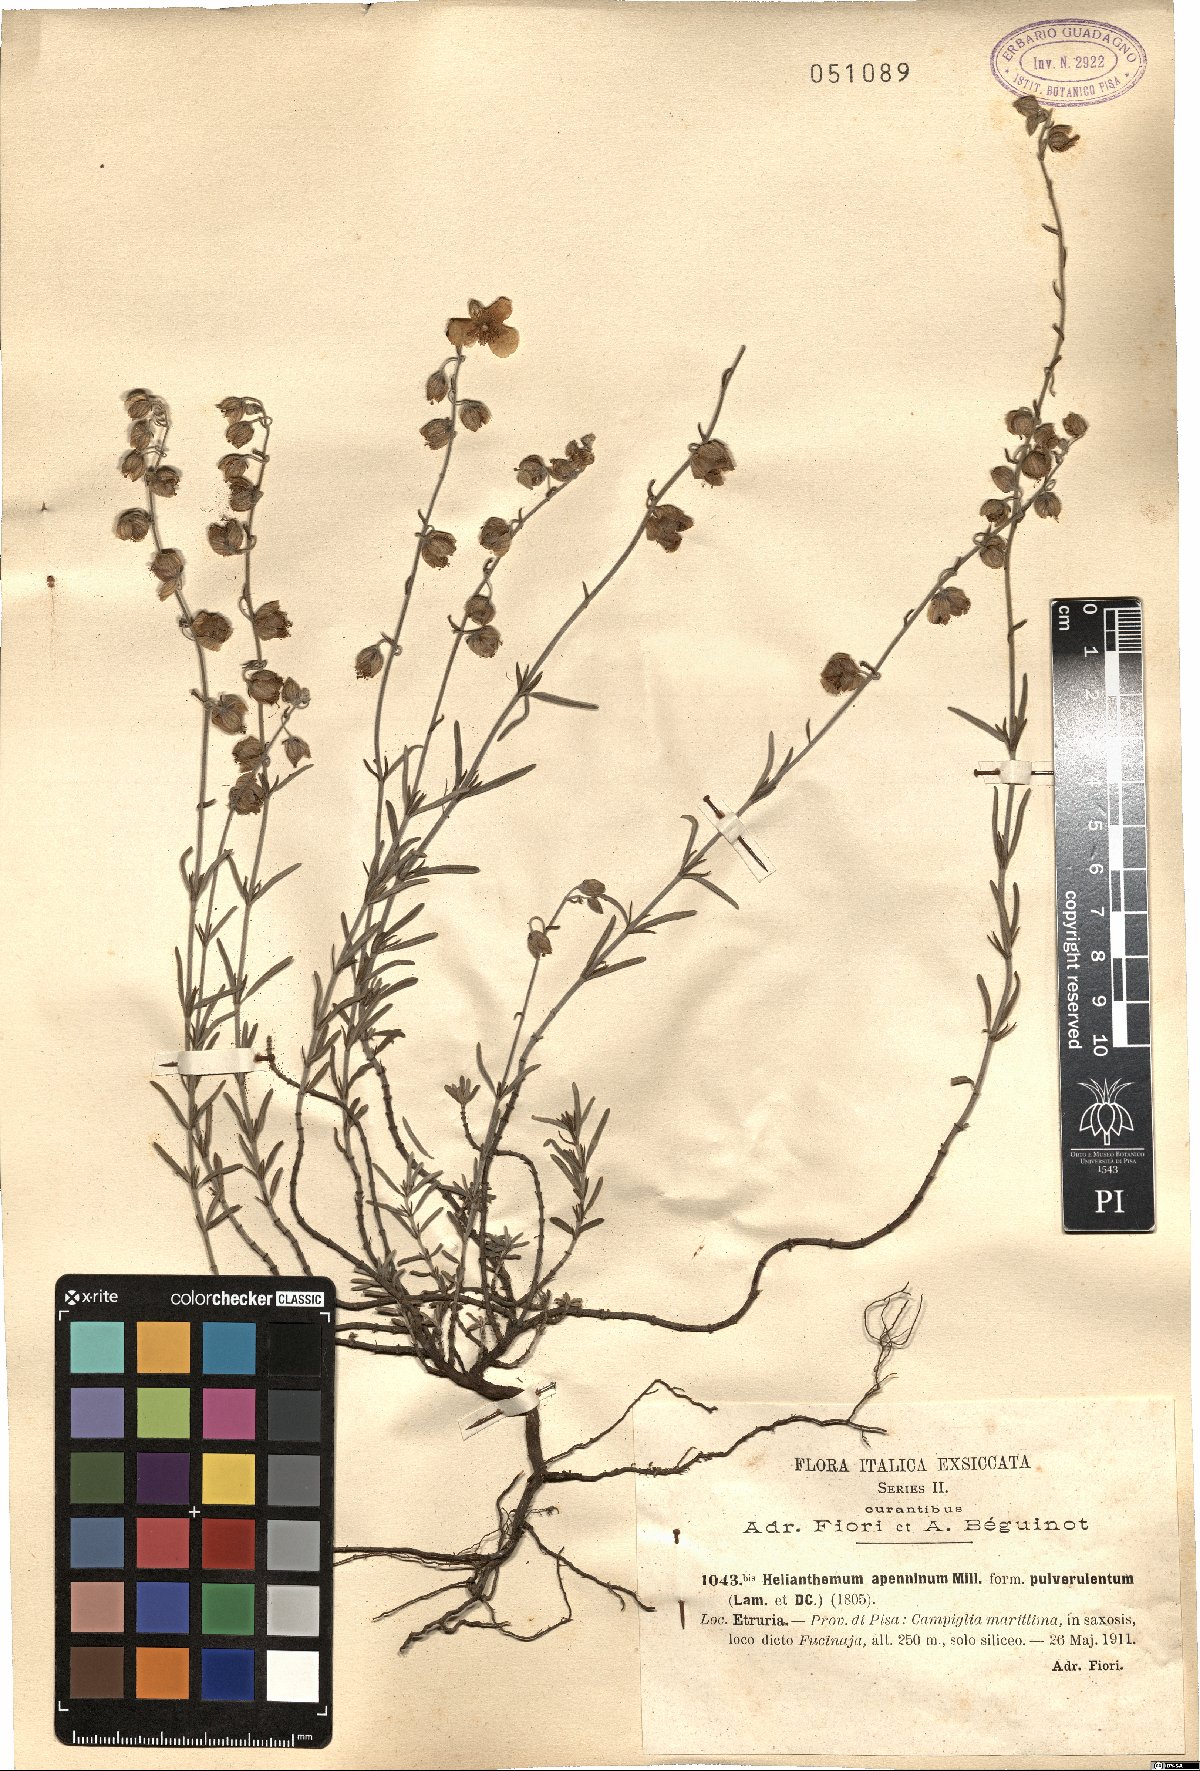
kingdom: Plantae
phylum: Tracheophyta
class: Magnoliopsida
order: Malvales
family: Cistaceae
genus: Helianthemum
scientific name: Helianthemum apenninum
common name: White rock-rose
